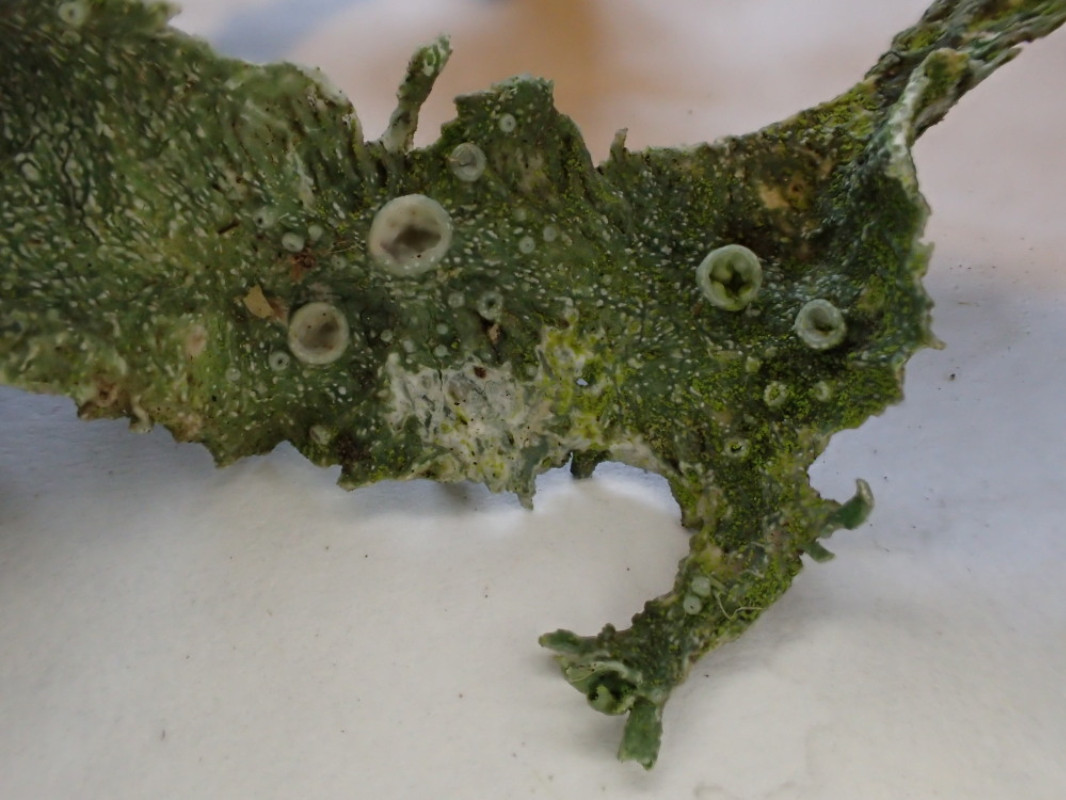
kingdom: Fungi
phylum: Ascomycota
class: Lecanoromycetes
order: Lecanorales
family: Ramalinaceae
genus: Ramalina
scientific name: Ramalina fraxinea
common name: stor grenlav
